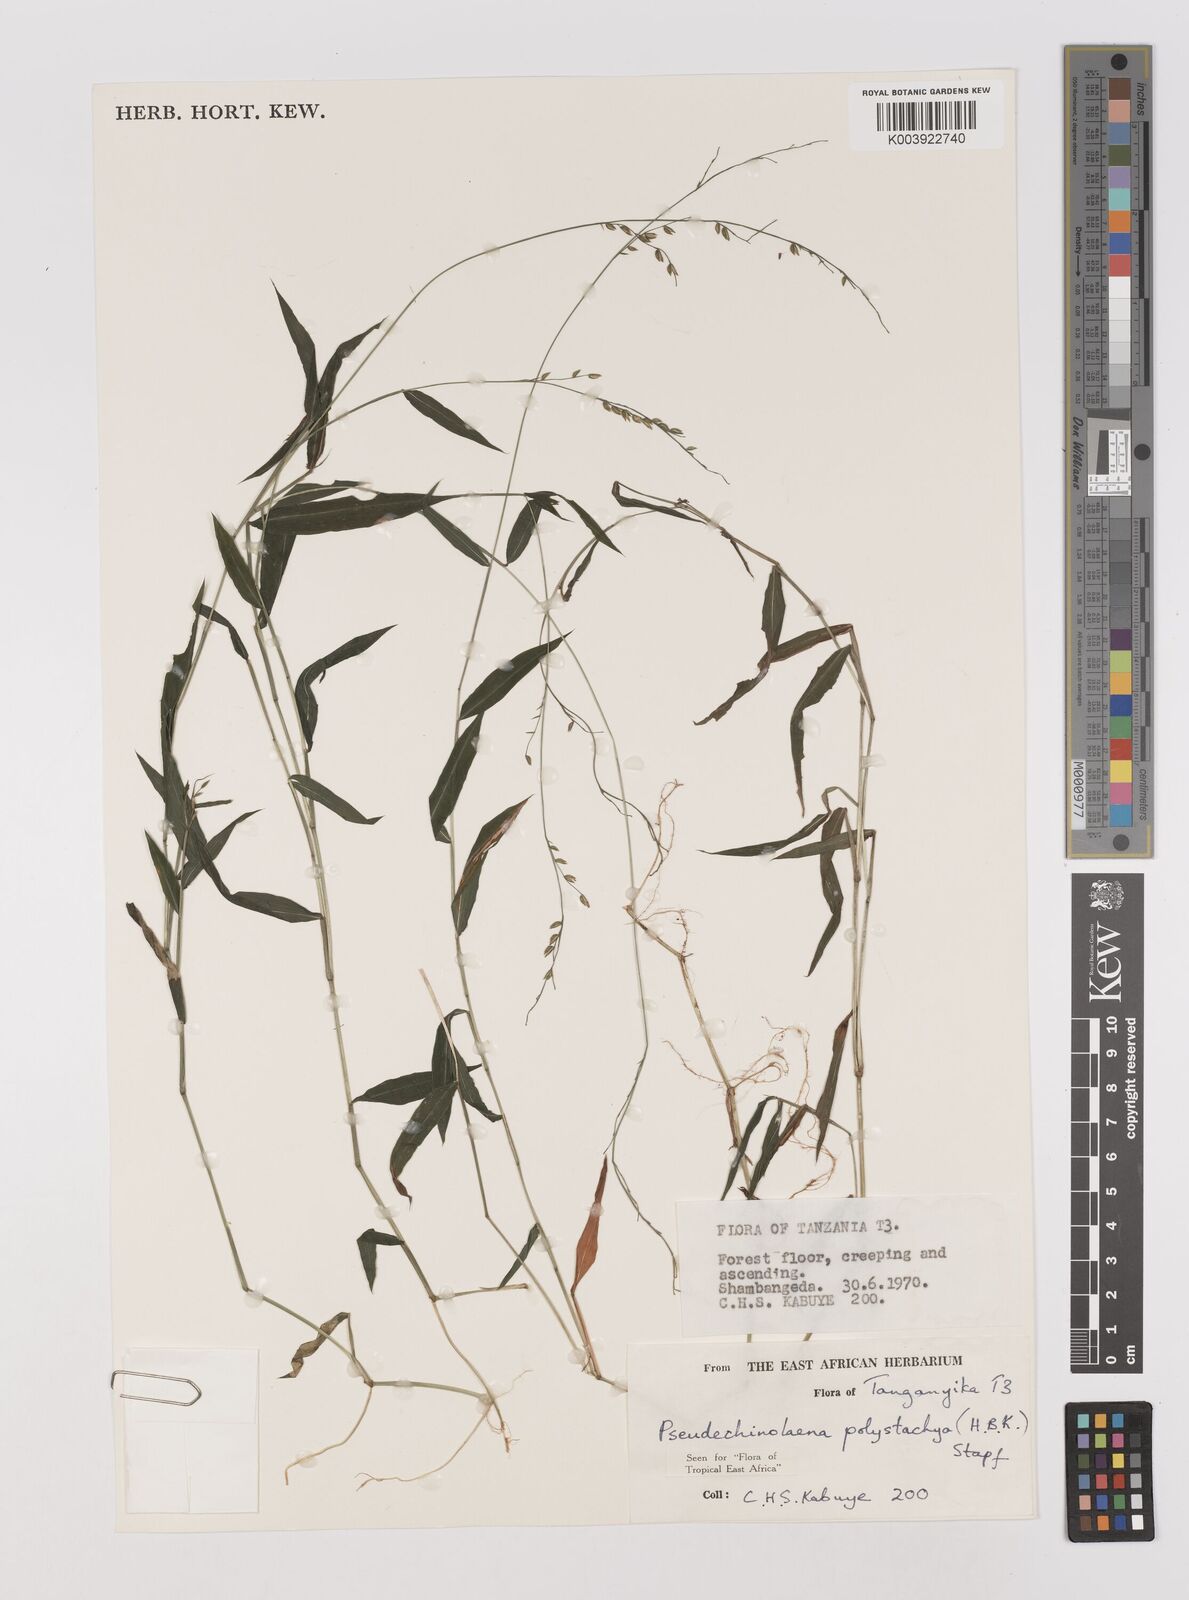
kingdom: Plantae
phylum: Tracheophyta
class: Liliopsida
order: Poales
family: Poaceae
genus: Pseudechinolaena
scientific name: Pseudechinolaena polystachya
